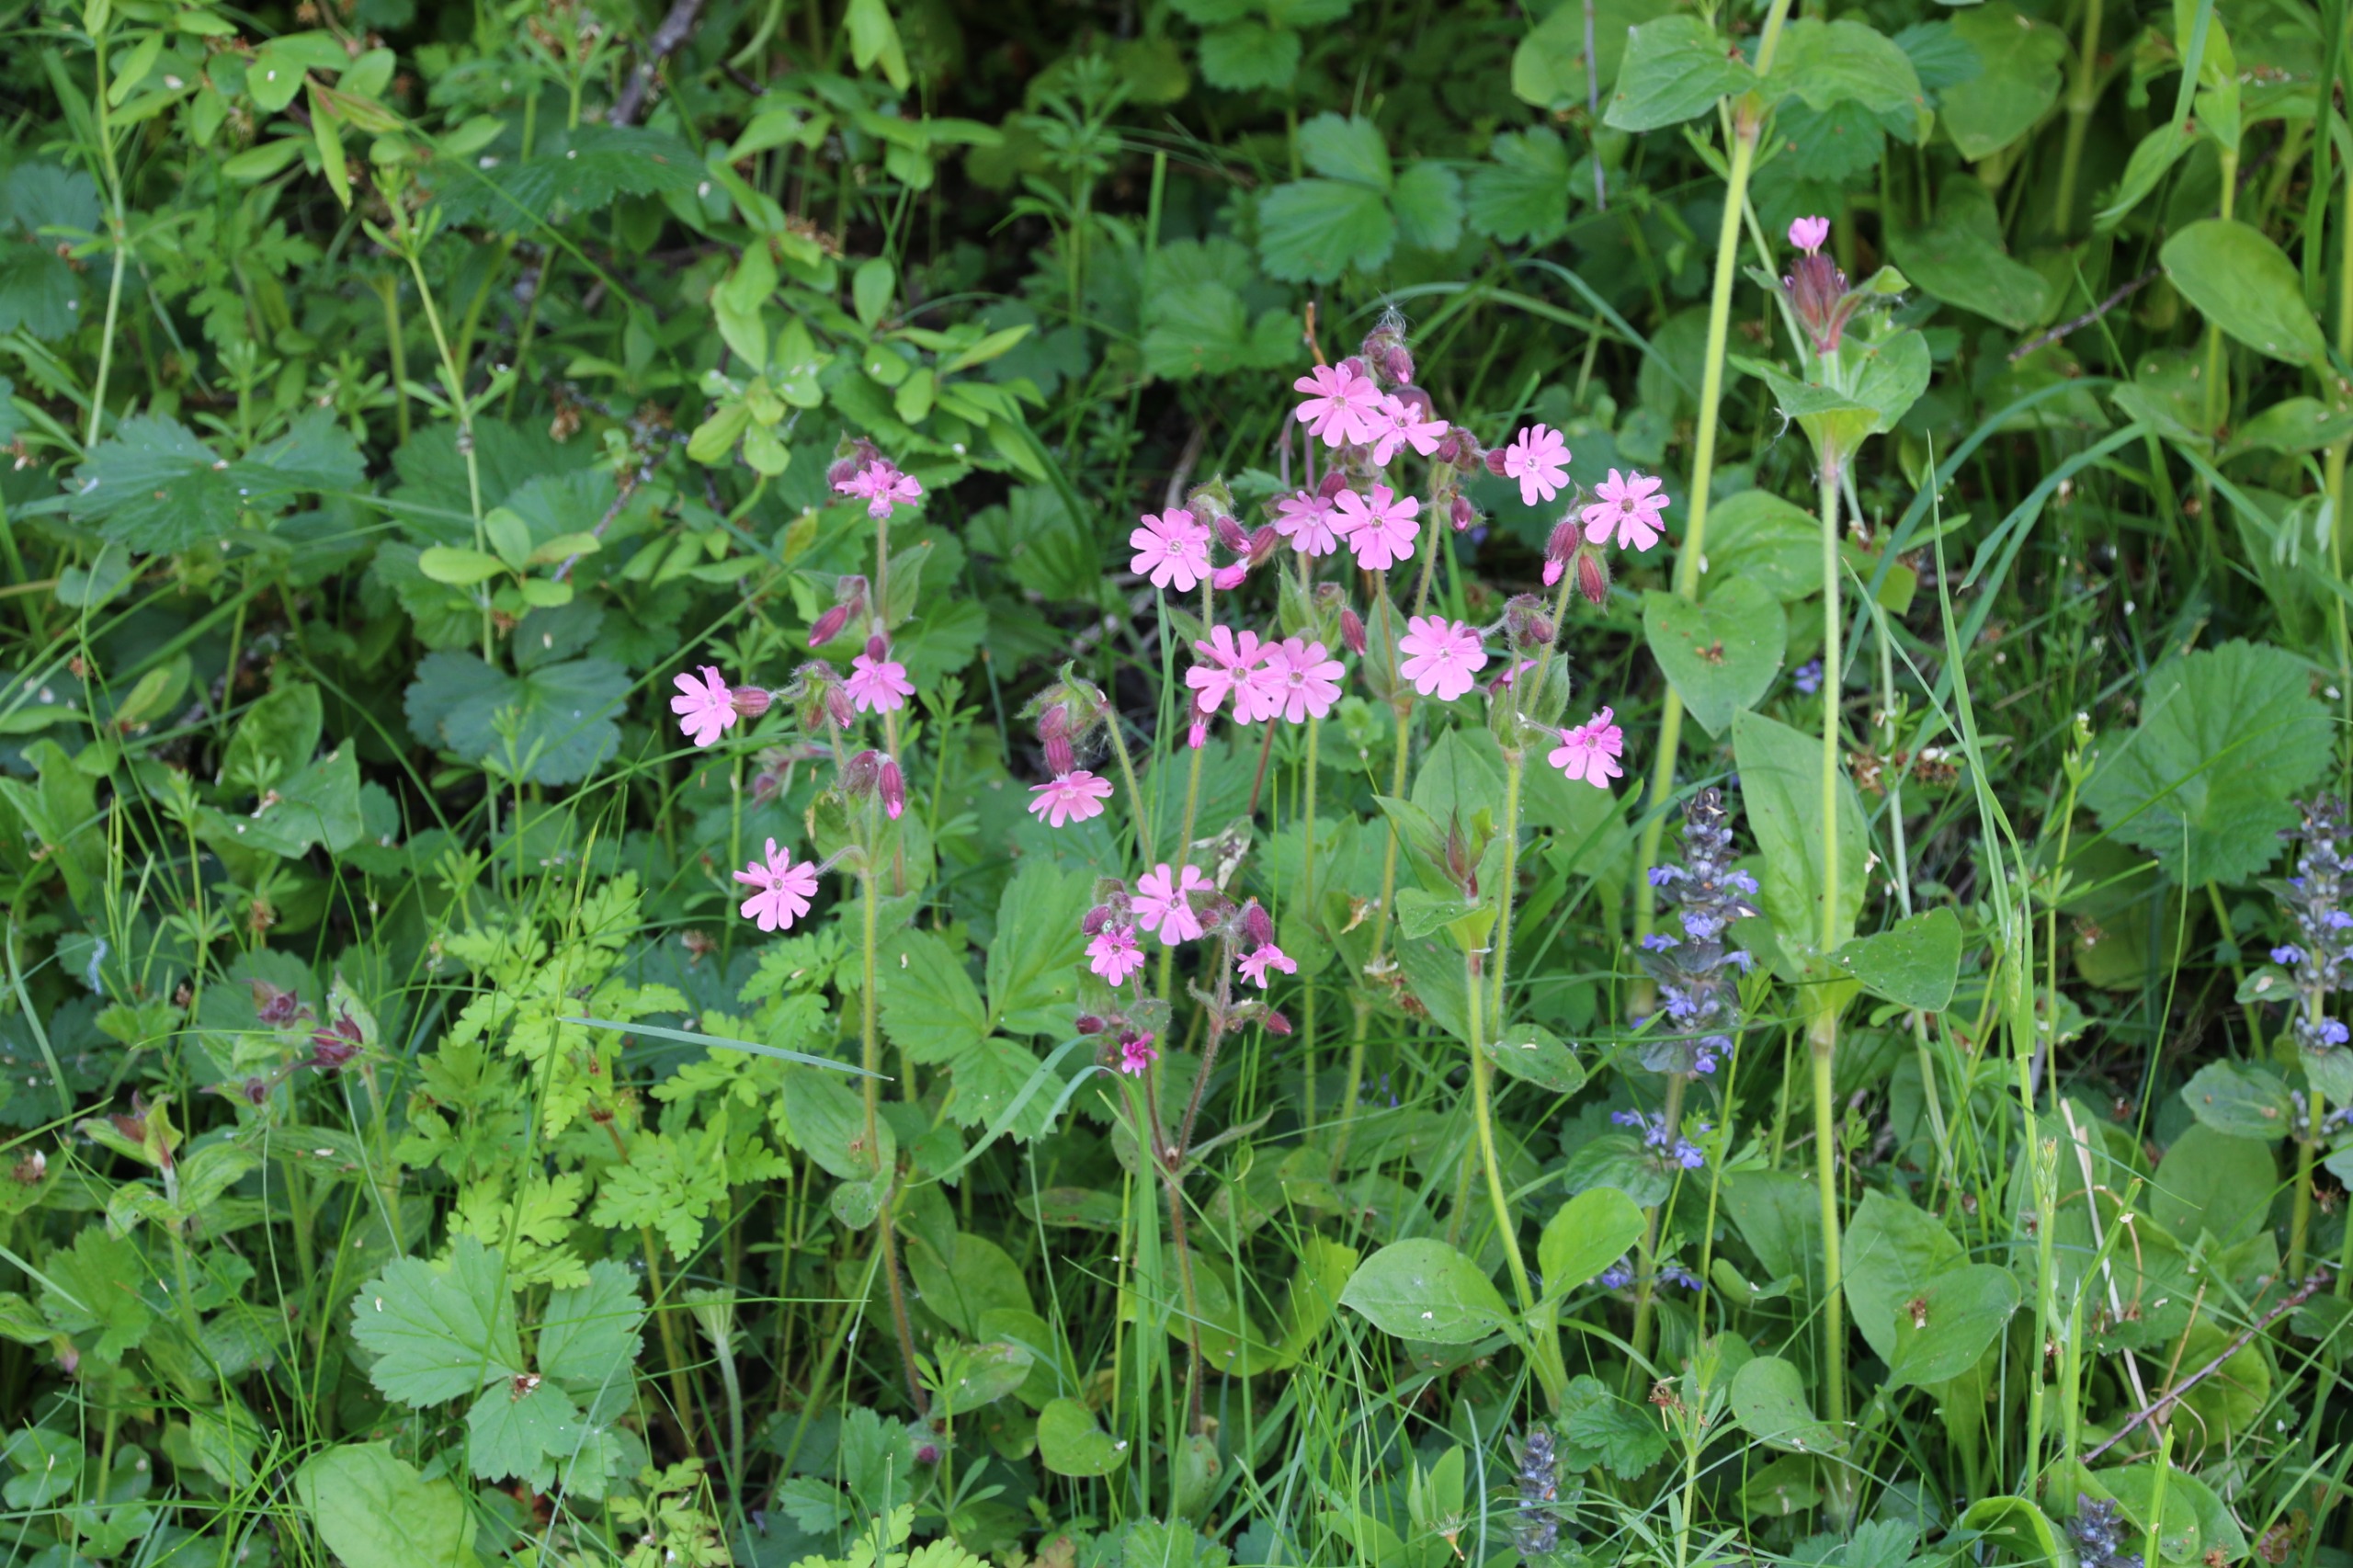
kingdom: Plantae
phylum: Tracheophyta
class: Magnoliopsida
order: Caryophyllales
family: Caryophyllaceae
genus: Silene
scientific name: Silene dioica
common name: Dagpragtstjerne
